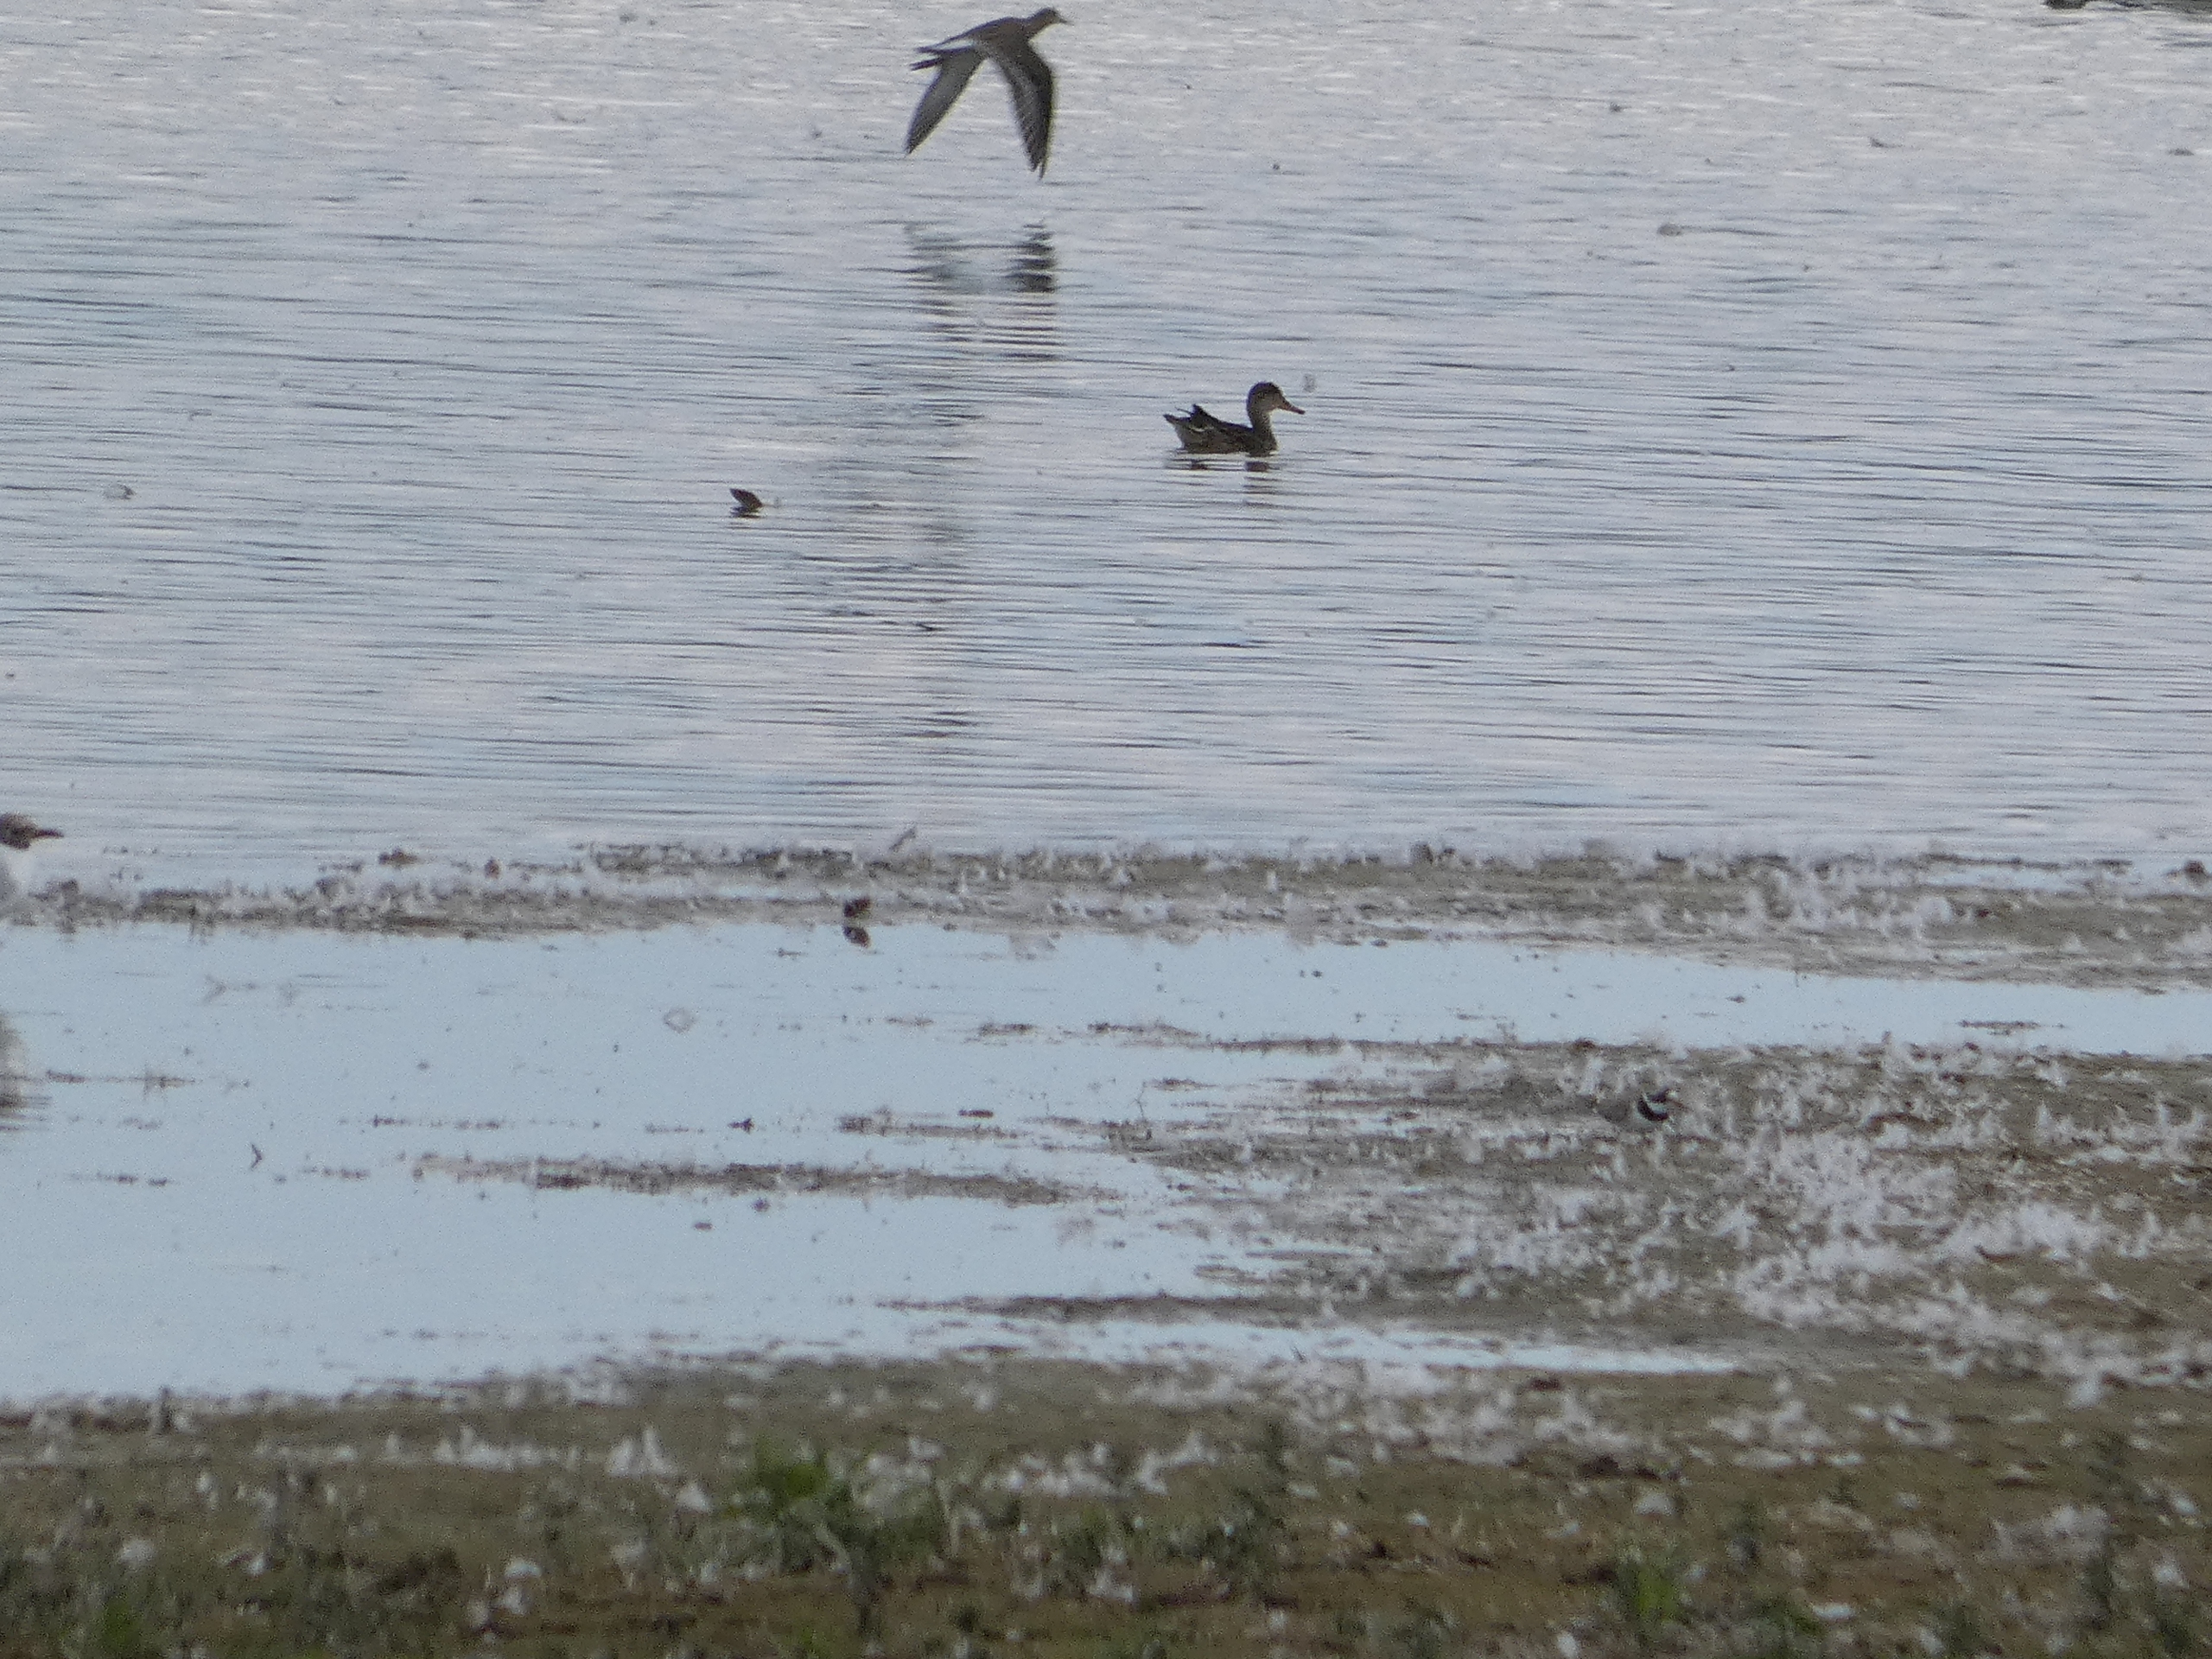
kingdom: Animalia
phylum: Chordata
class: Aves
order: Charadriiformes
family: Scolopacidae
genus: Calidris
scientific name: Calidris pugnax
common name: Brushane
